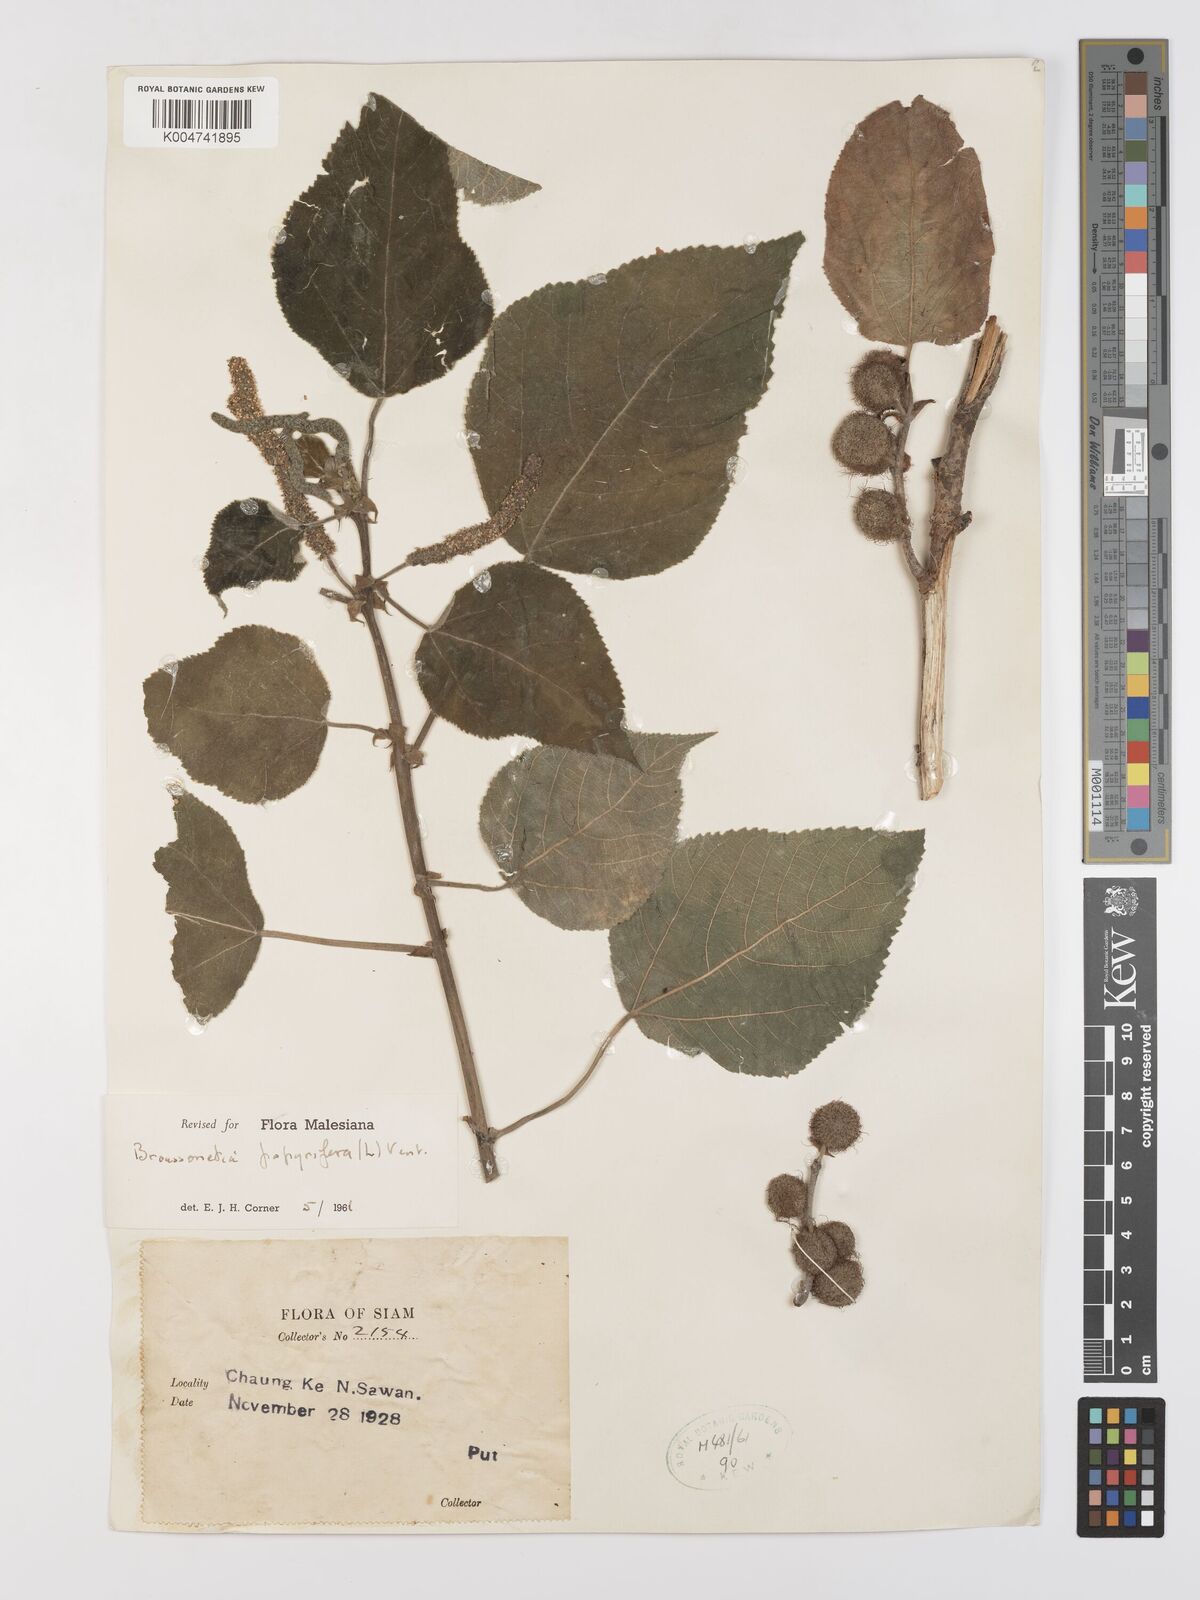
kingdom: Plantae
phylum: Tracheophyta
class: Magnoliopsida
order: Rosales
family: Moraceae
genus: Broussonetia
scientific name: Broussonetia papyrifera
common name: Paper mulberry
